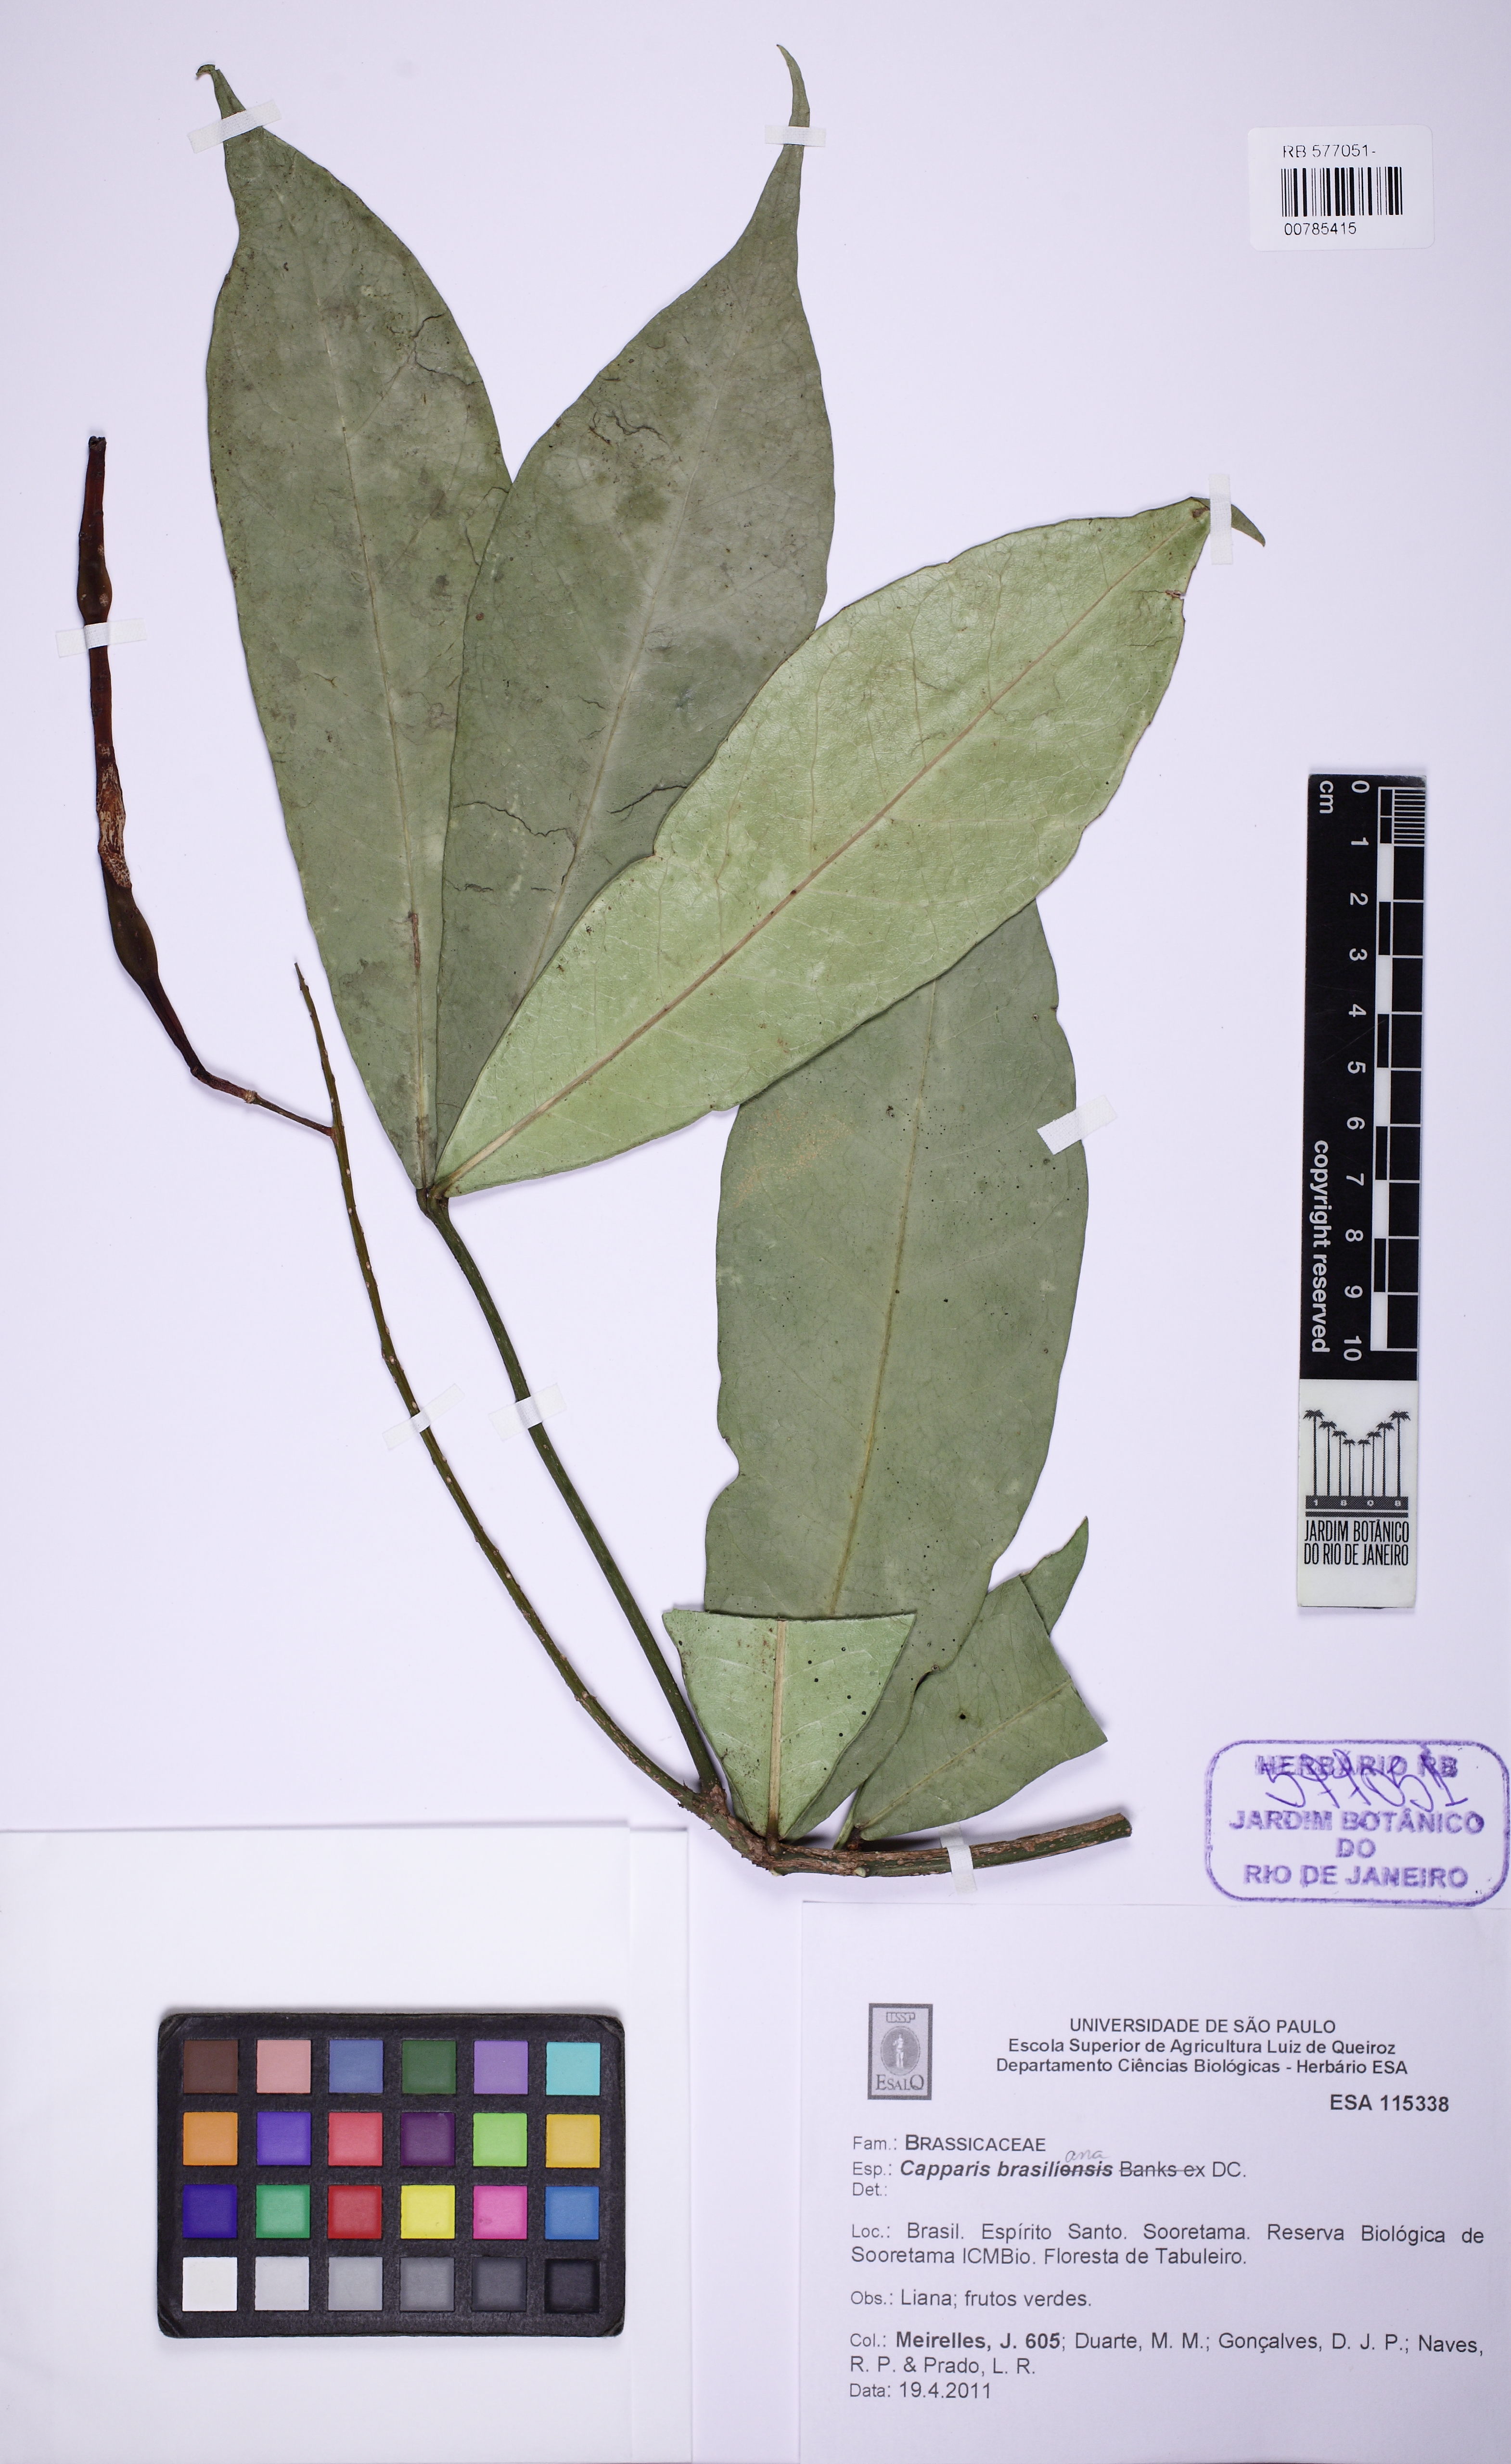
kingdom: Plantae
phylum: Tracheophyta
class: Magnoliopsida
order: Brassicales
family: Capparaceae
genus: Monilicarpa
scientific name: Monilicarpa brasiliana
